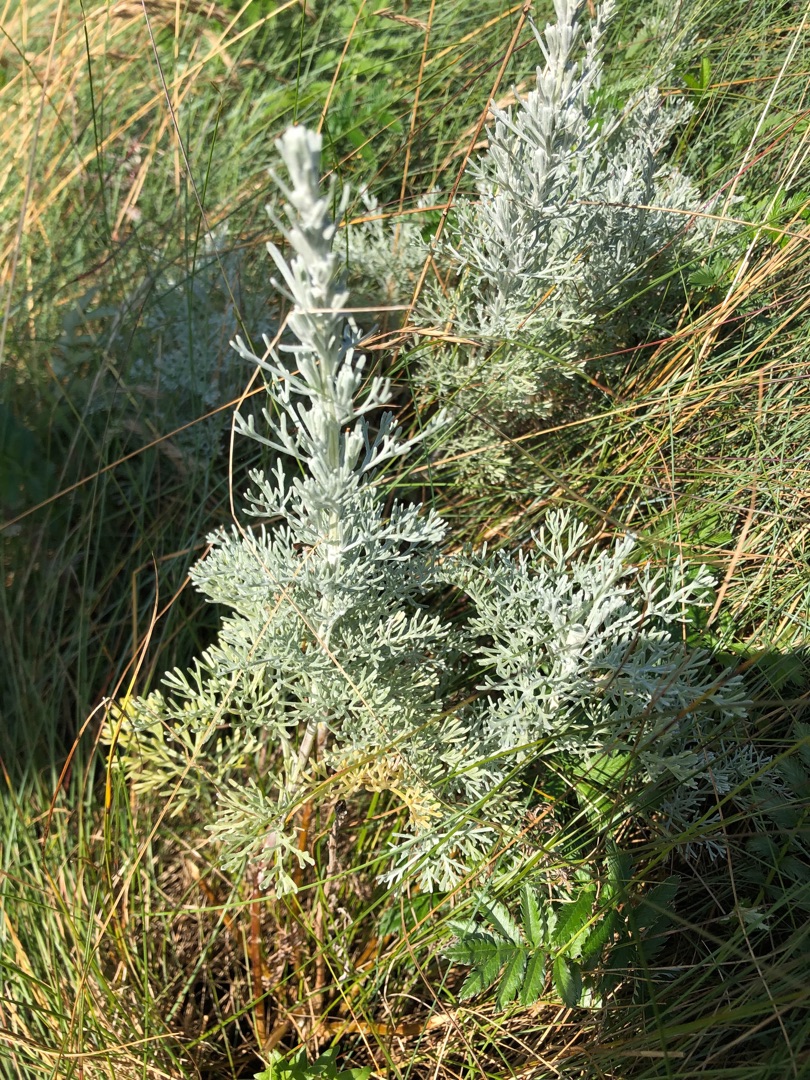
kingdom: Plantae
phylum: Tracheophyta
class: Magnoliopsida
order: Asterales
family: Asteraceae
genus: Artemisia
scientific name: Artemisia maritima
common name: Strandmalurt
